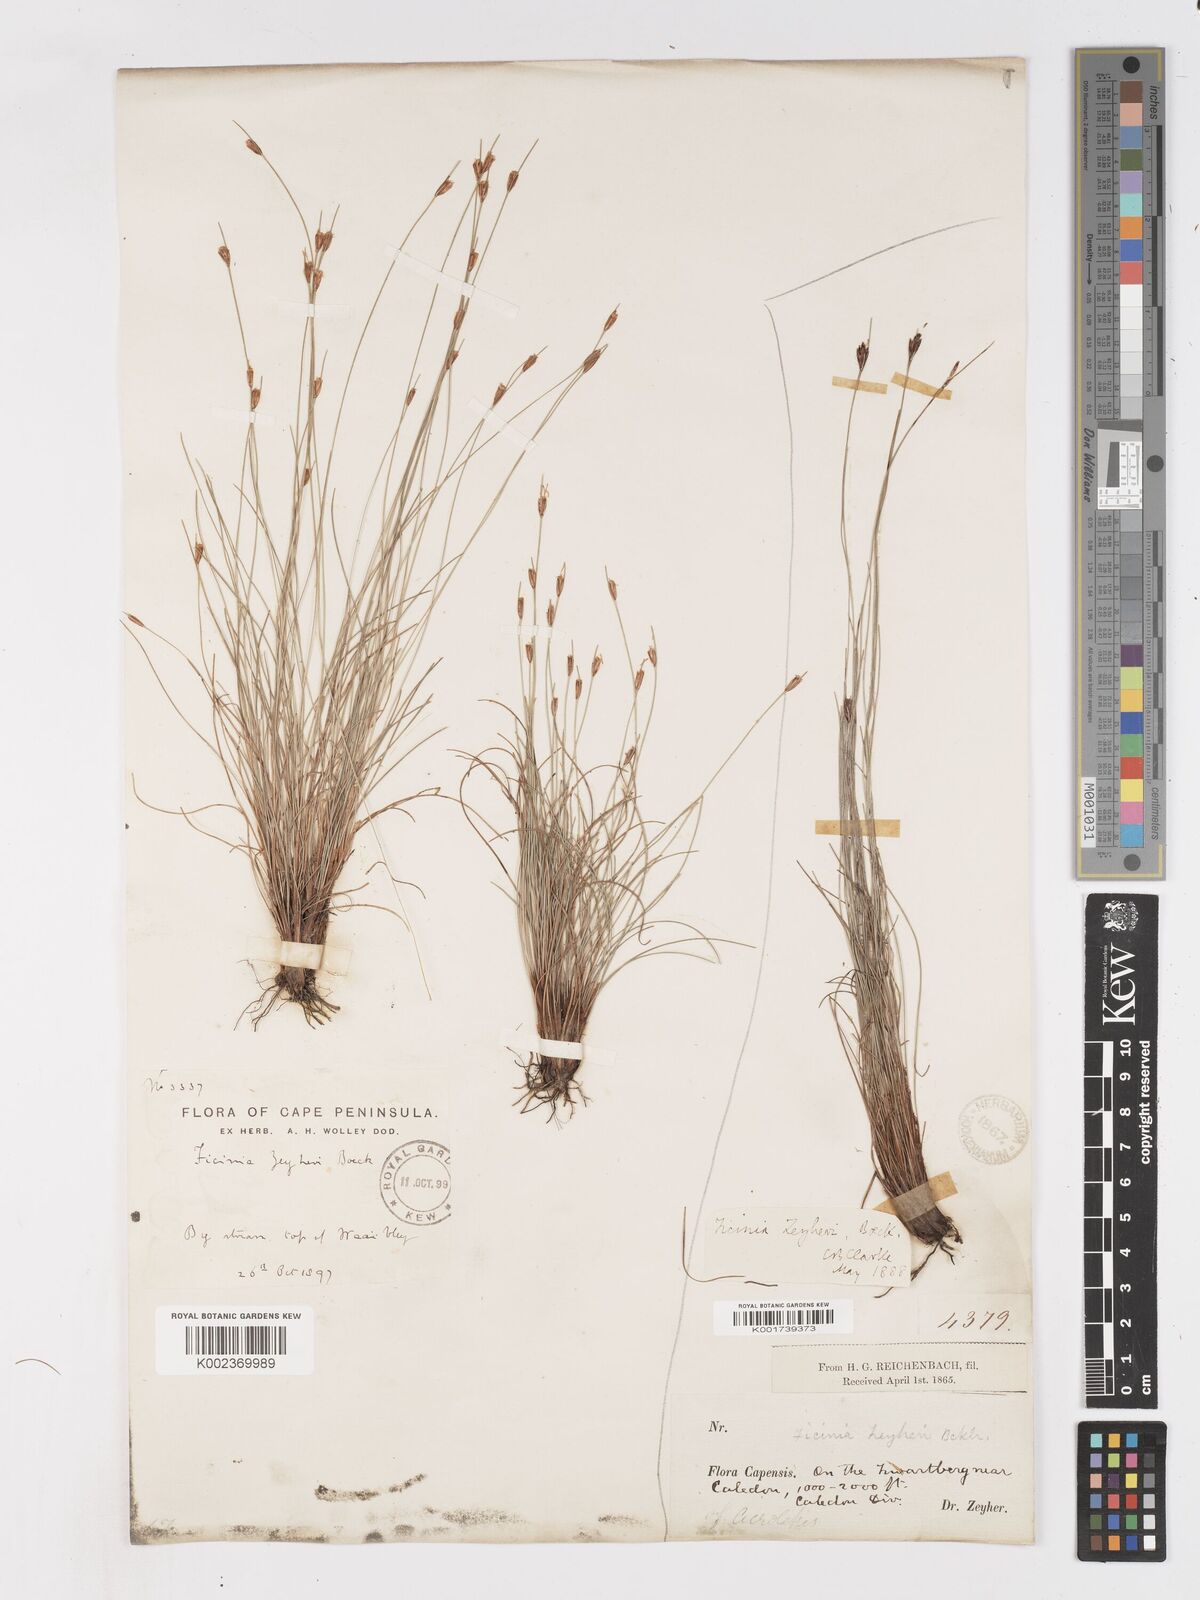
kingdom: Plantae
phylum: Tracheophyta
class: Liliopsida
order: Poales
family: Cyperaceae
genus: Ficinia
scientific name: Ficinia zeyheri
